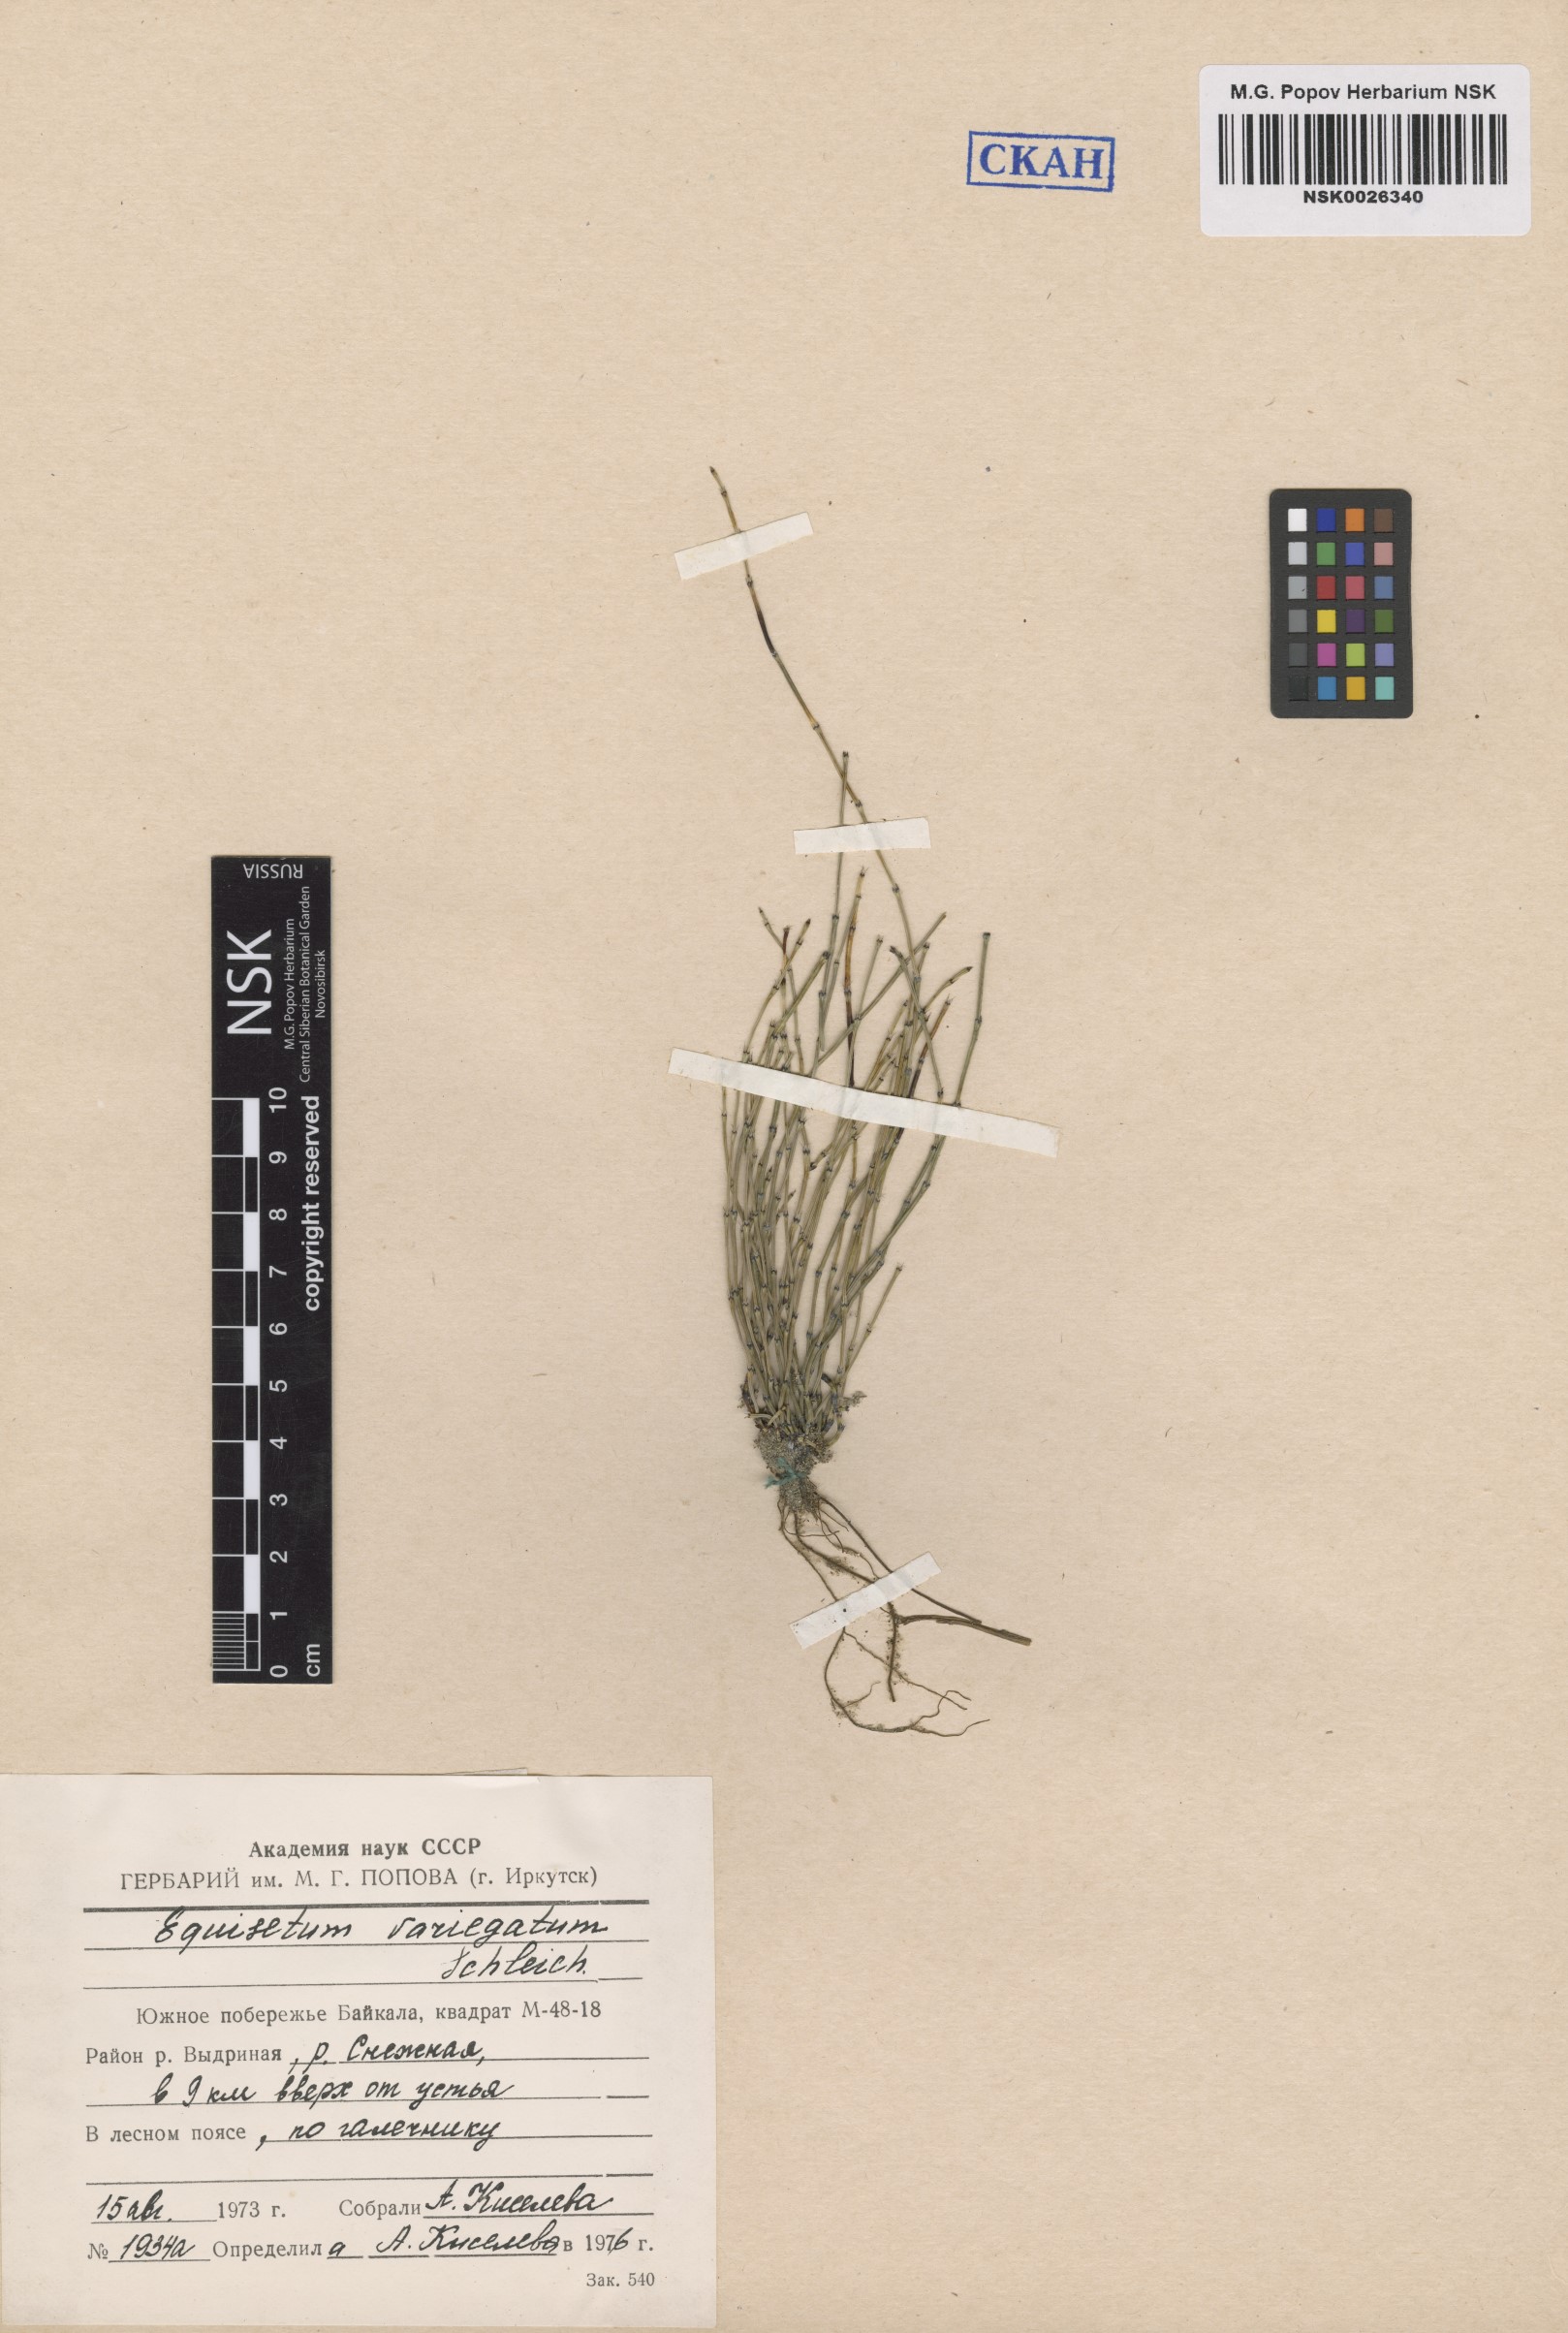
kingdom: Plantae
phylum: Tracheophyta
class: Polypodiopsida
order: Equisetales
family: Equisetaceae
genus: Equisetum
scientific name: Equisetum variegatum
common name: Variegated horsetail
